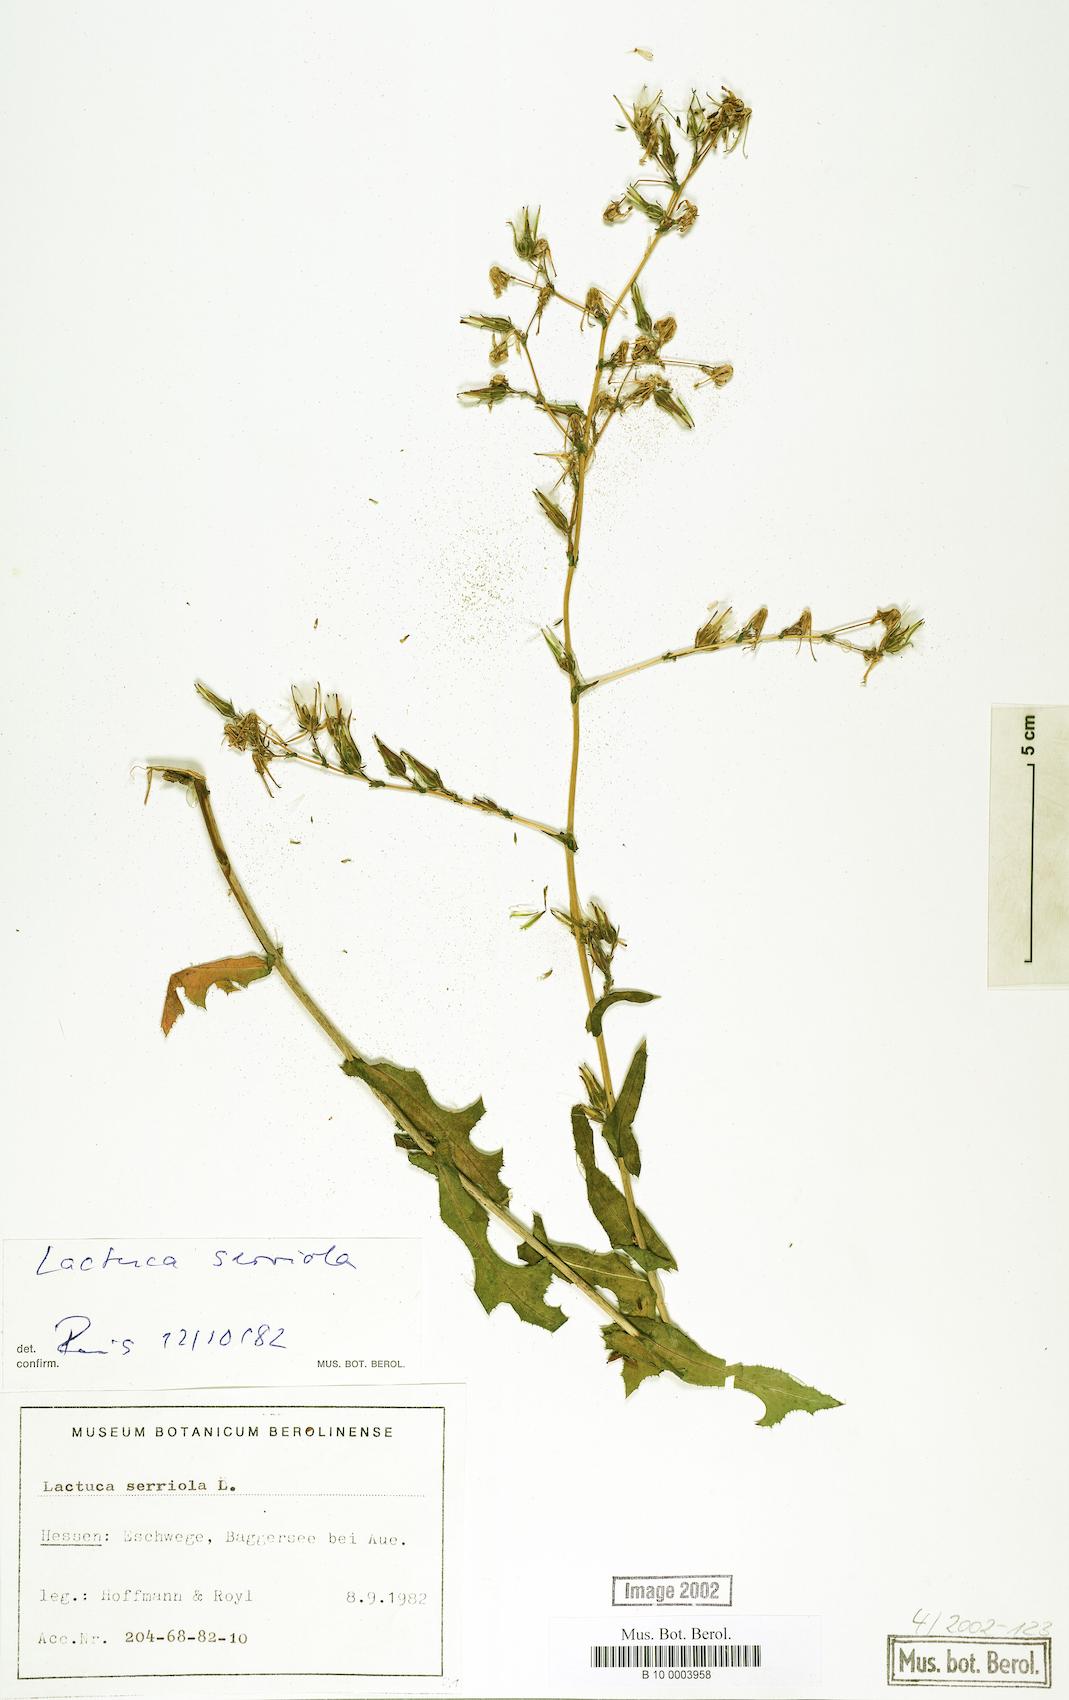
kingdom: Plantae
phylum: Tracheophyta
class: Magnoliopsida
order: Asterales
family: Asteraceae
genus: Lactuca
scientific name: Lactuca serriola
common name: Prickly lettuce
